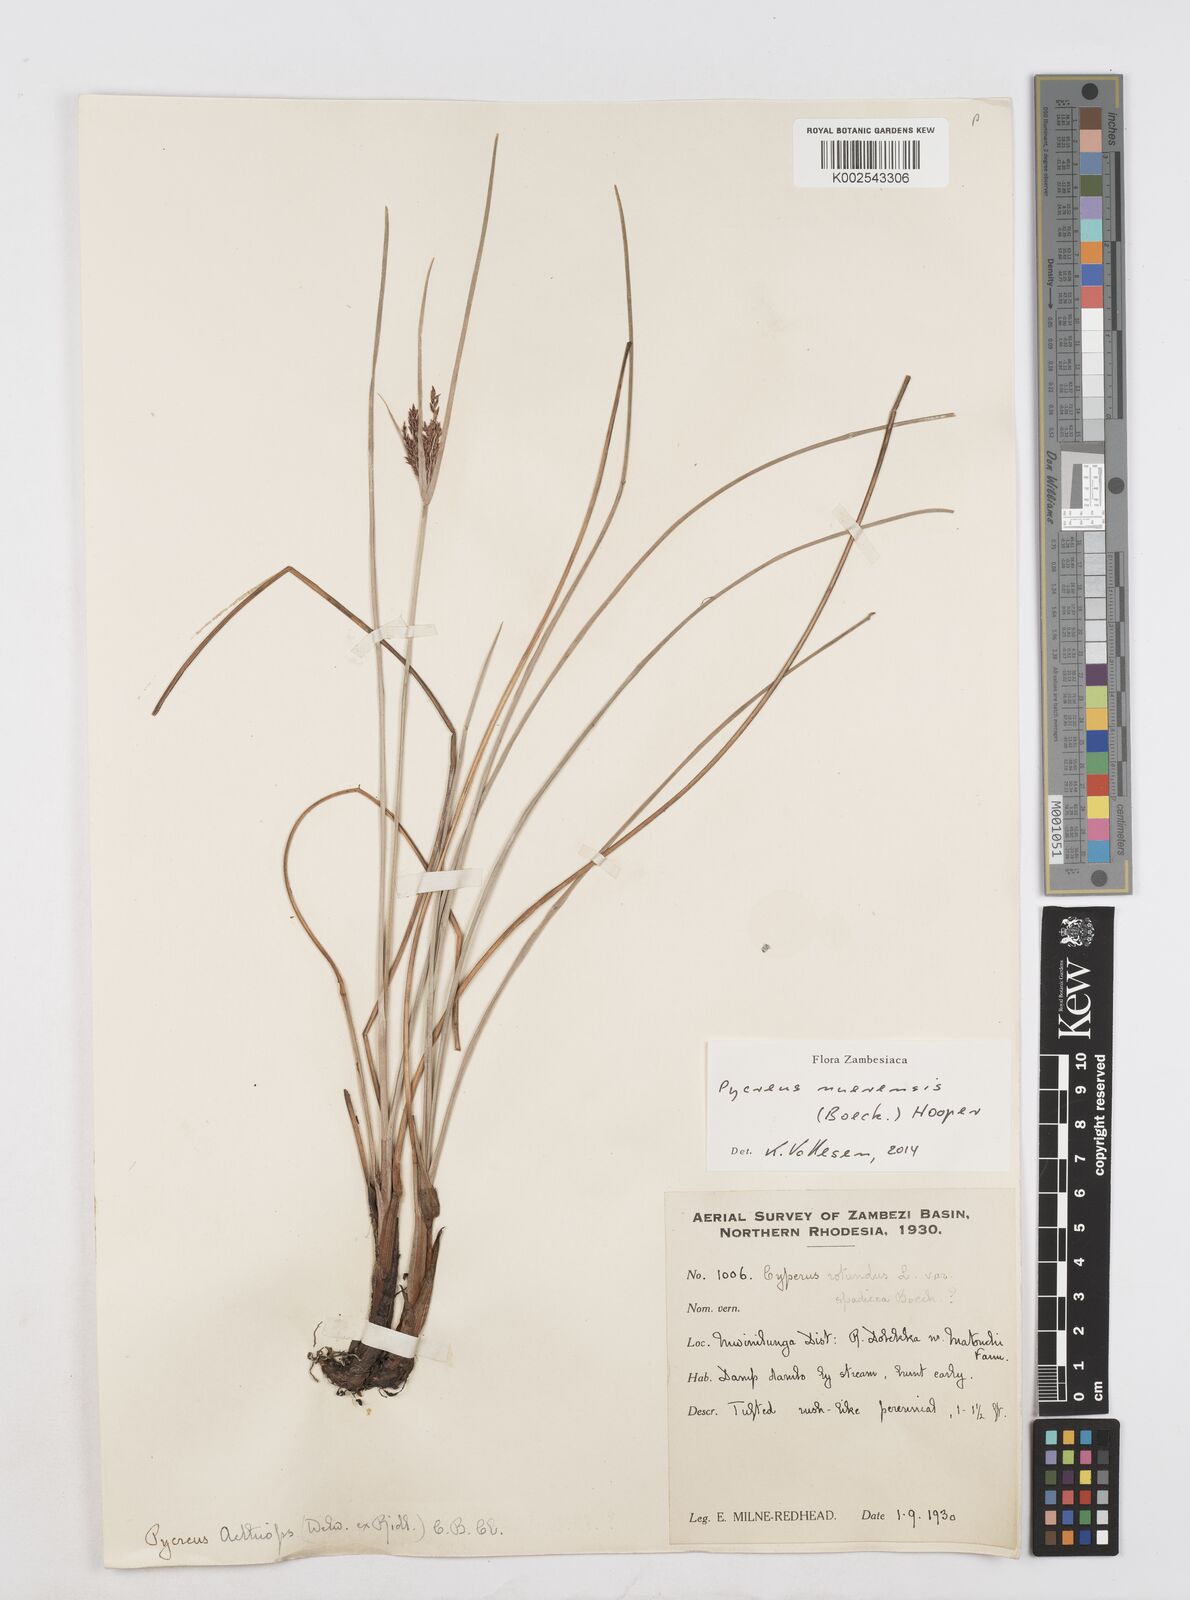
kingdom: Plantae
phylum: Tracheophyta
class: Liliopsida
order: Poales
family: Cyperaceae
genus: Cyperus
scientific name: Cyperus nuerensis
